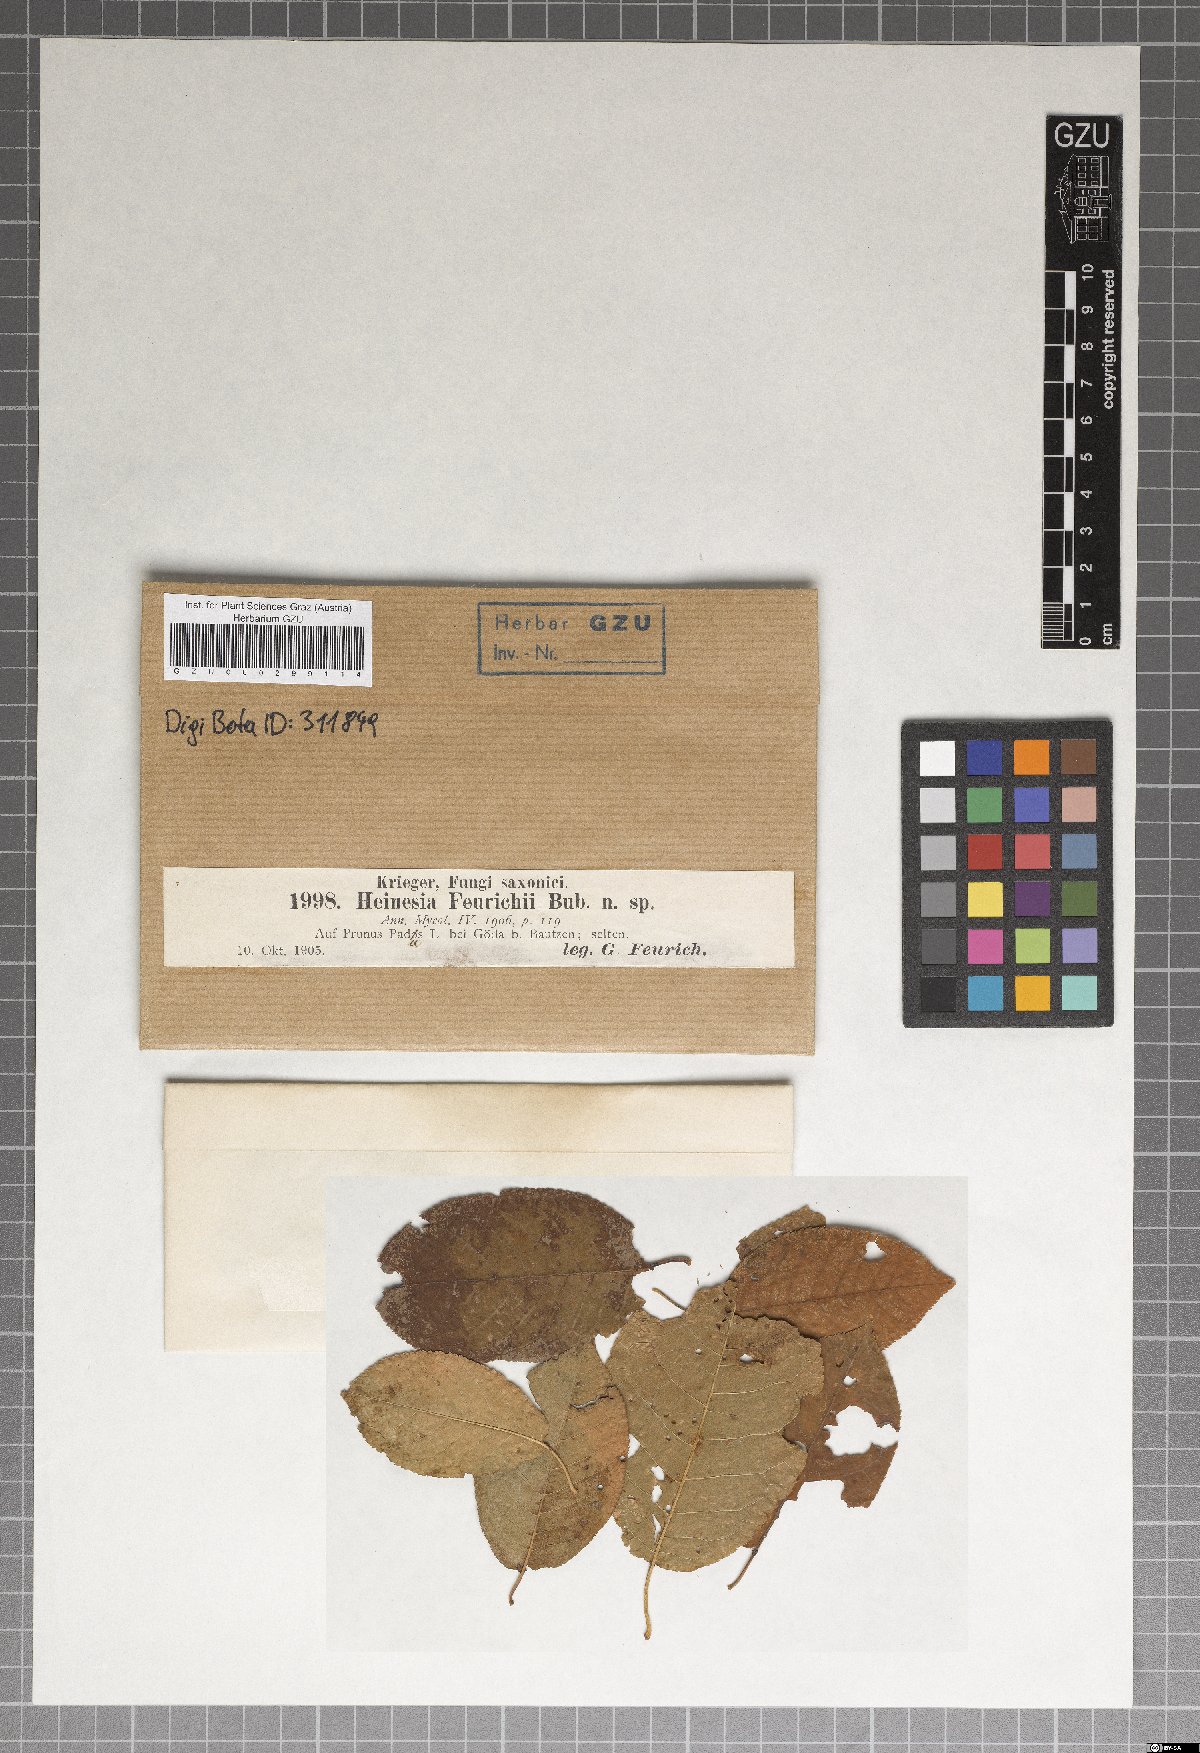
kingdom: Fungi
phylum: Ascomycota
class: Leotiomycetes
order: Chaetomellales
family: Chaetomellaceae
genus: Hainesia
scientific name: Hainesia feurichii
